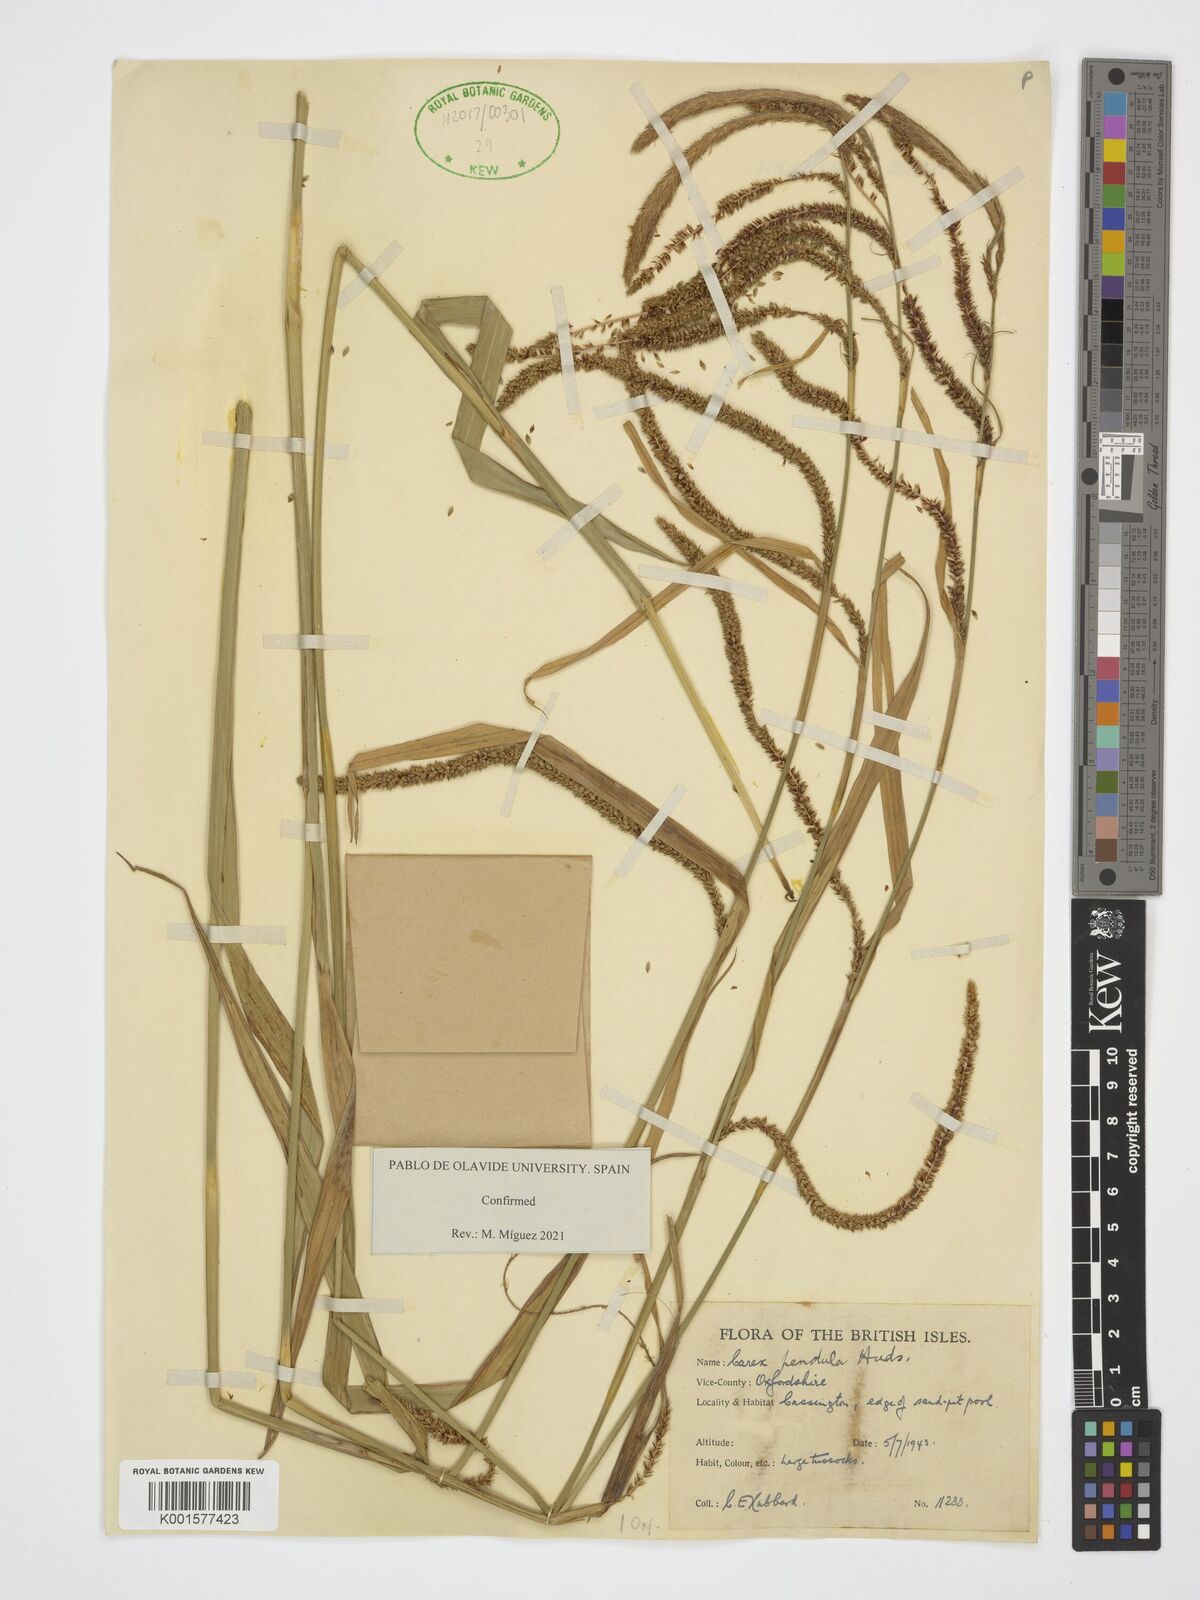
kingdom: Plantae
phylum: Tracheophyta
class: Liliopsida
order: Poales
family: Cyperaceae
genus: Carex
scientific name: Carex pendula
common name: Pendulous sedge
